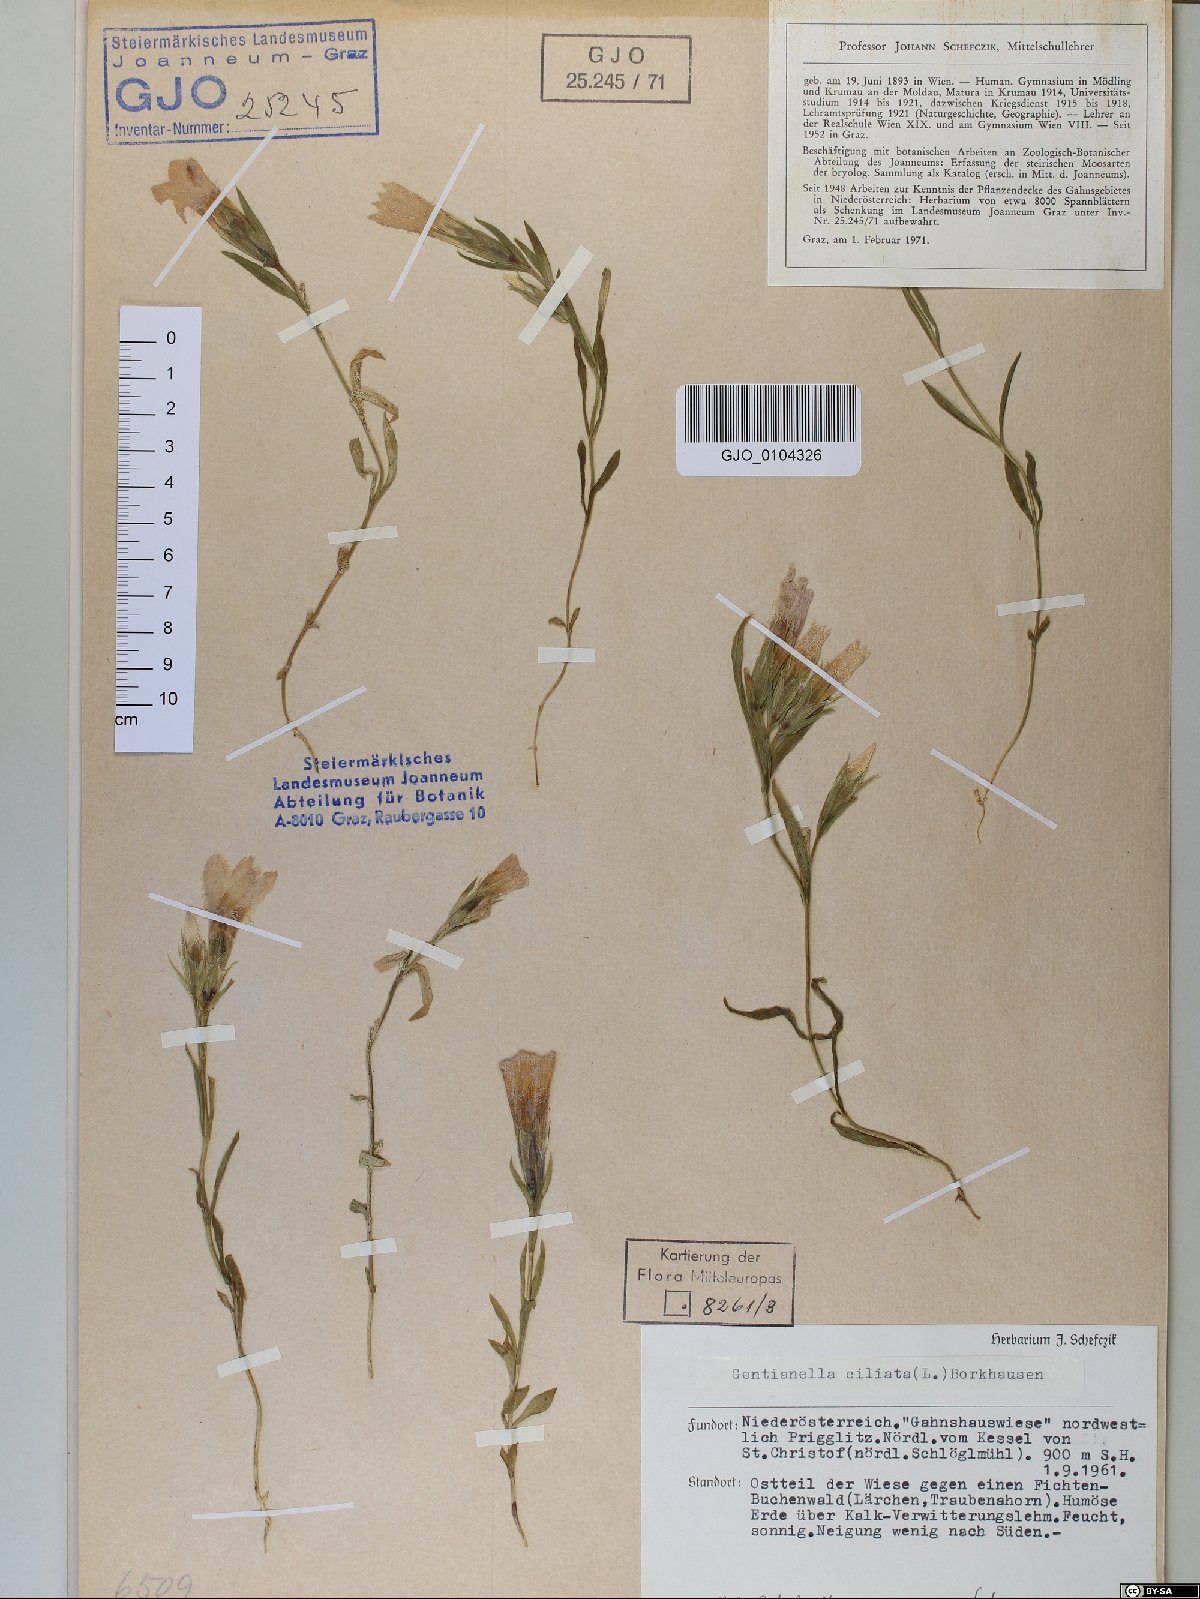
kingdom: Plantae
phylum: Tracheophyta
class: Magnoliopsida
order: Gentianales
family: Gentianaceae
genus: Gentianopsis
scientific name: Gentianopsis ciliata
